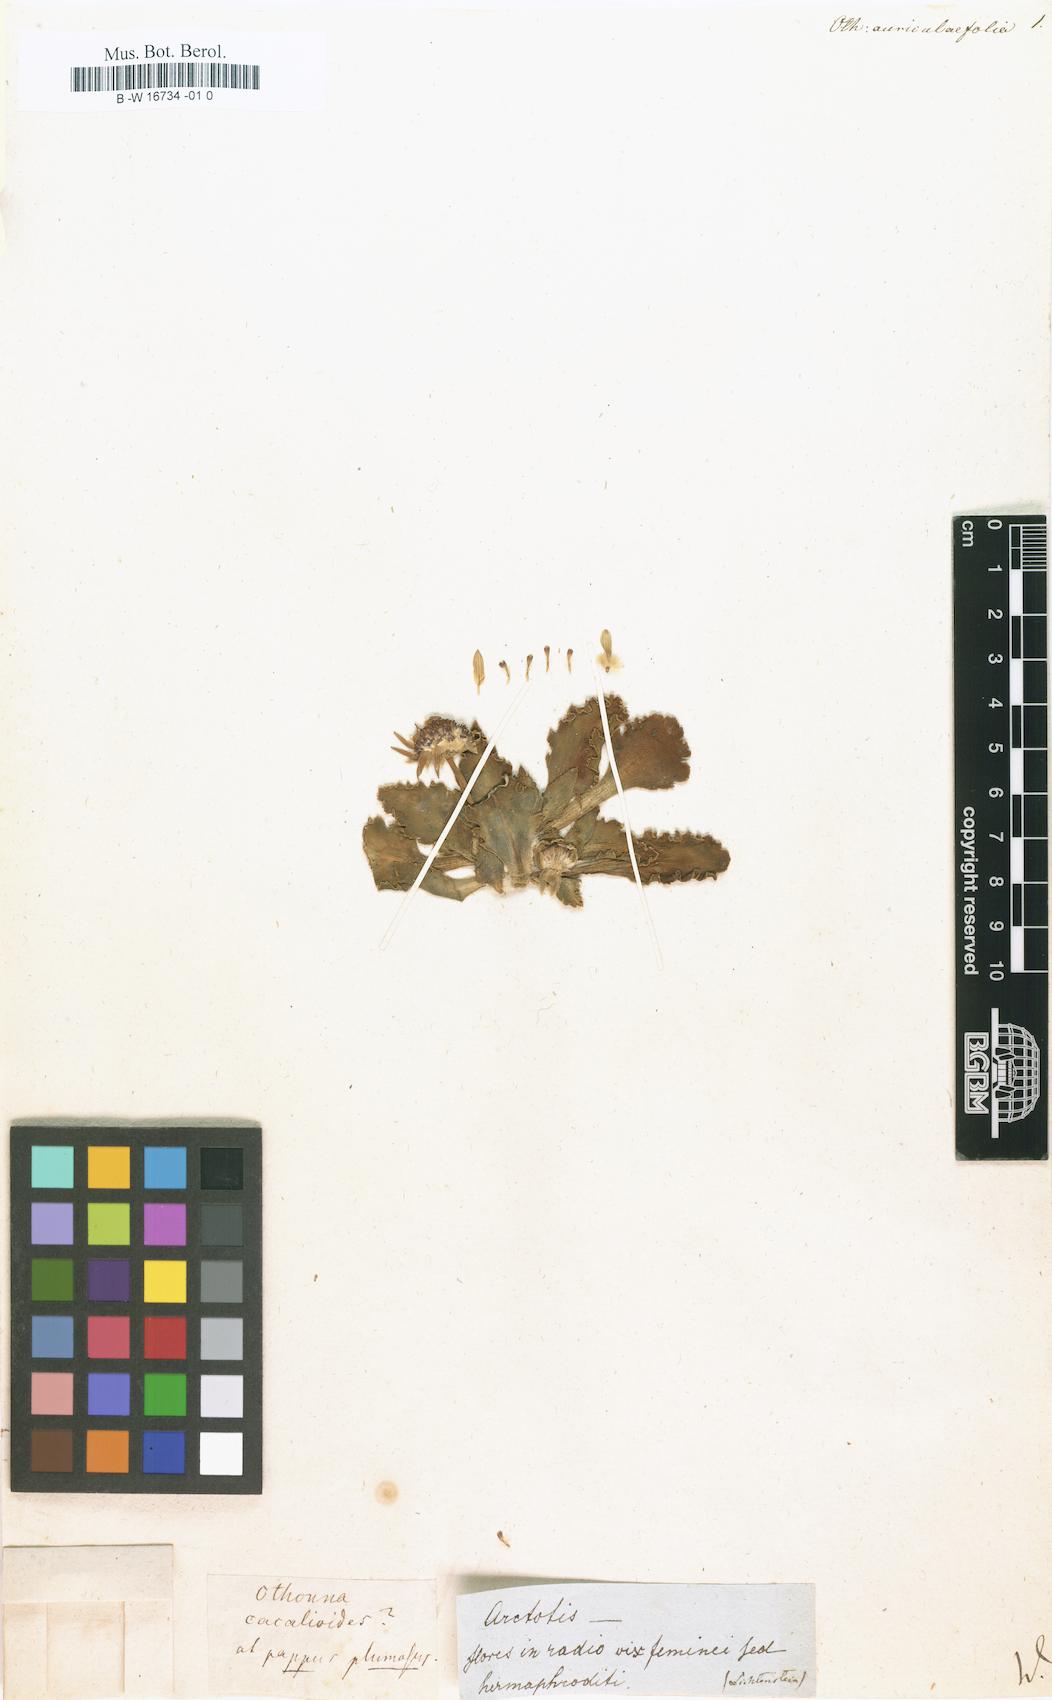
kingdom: Plantae
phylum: Tracheophyta
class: Magnoliopsida
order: Asterales
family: Asteraceae
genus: Othonna
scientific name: Othonna auriculifolia
